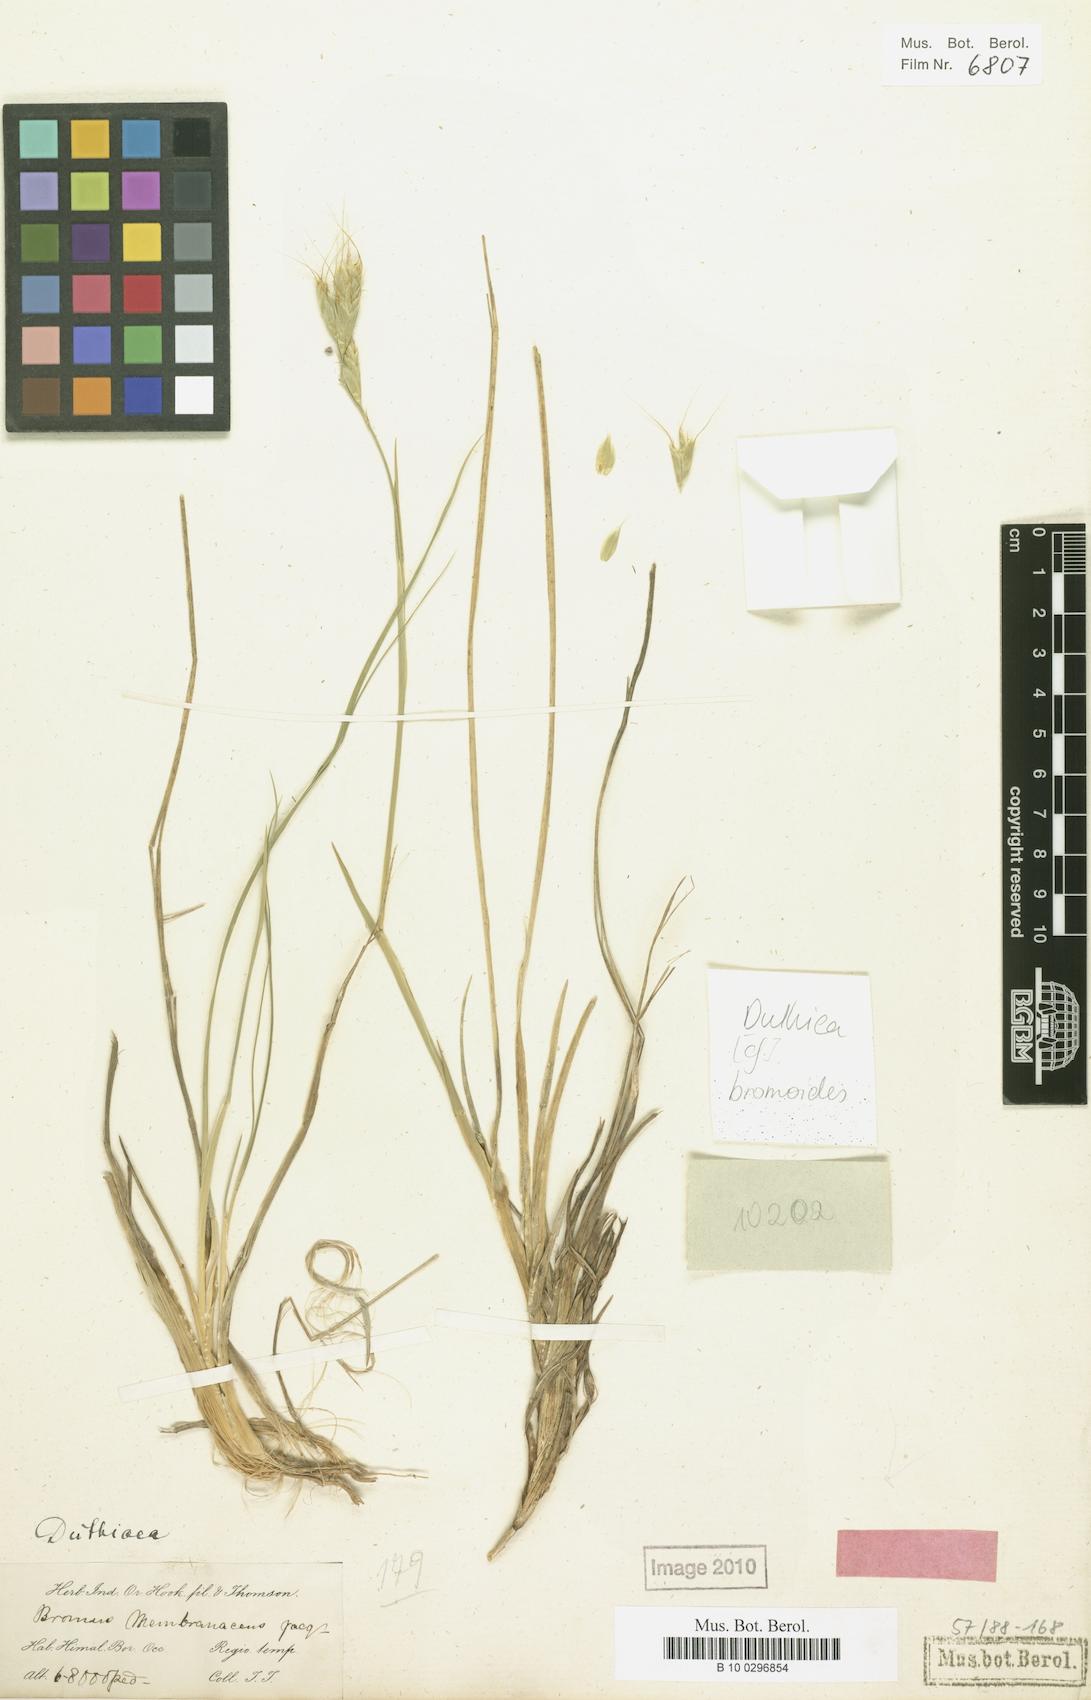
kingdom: Plantae
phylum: Tracheophyta
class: Liliopsida
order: Poales
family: Poaceae
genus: Duthiea
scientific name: Duthiea bromoides
